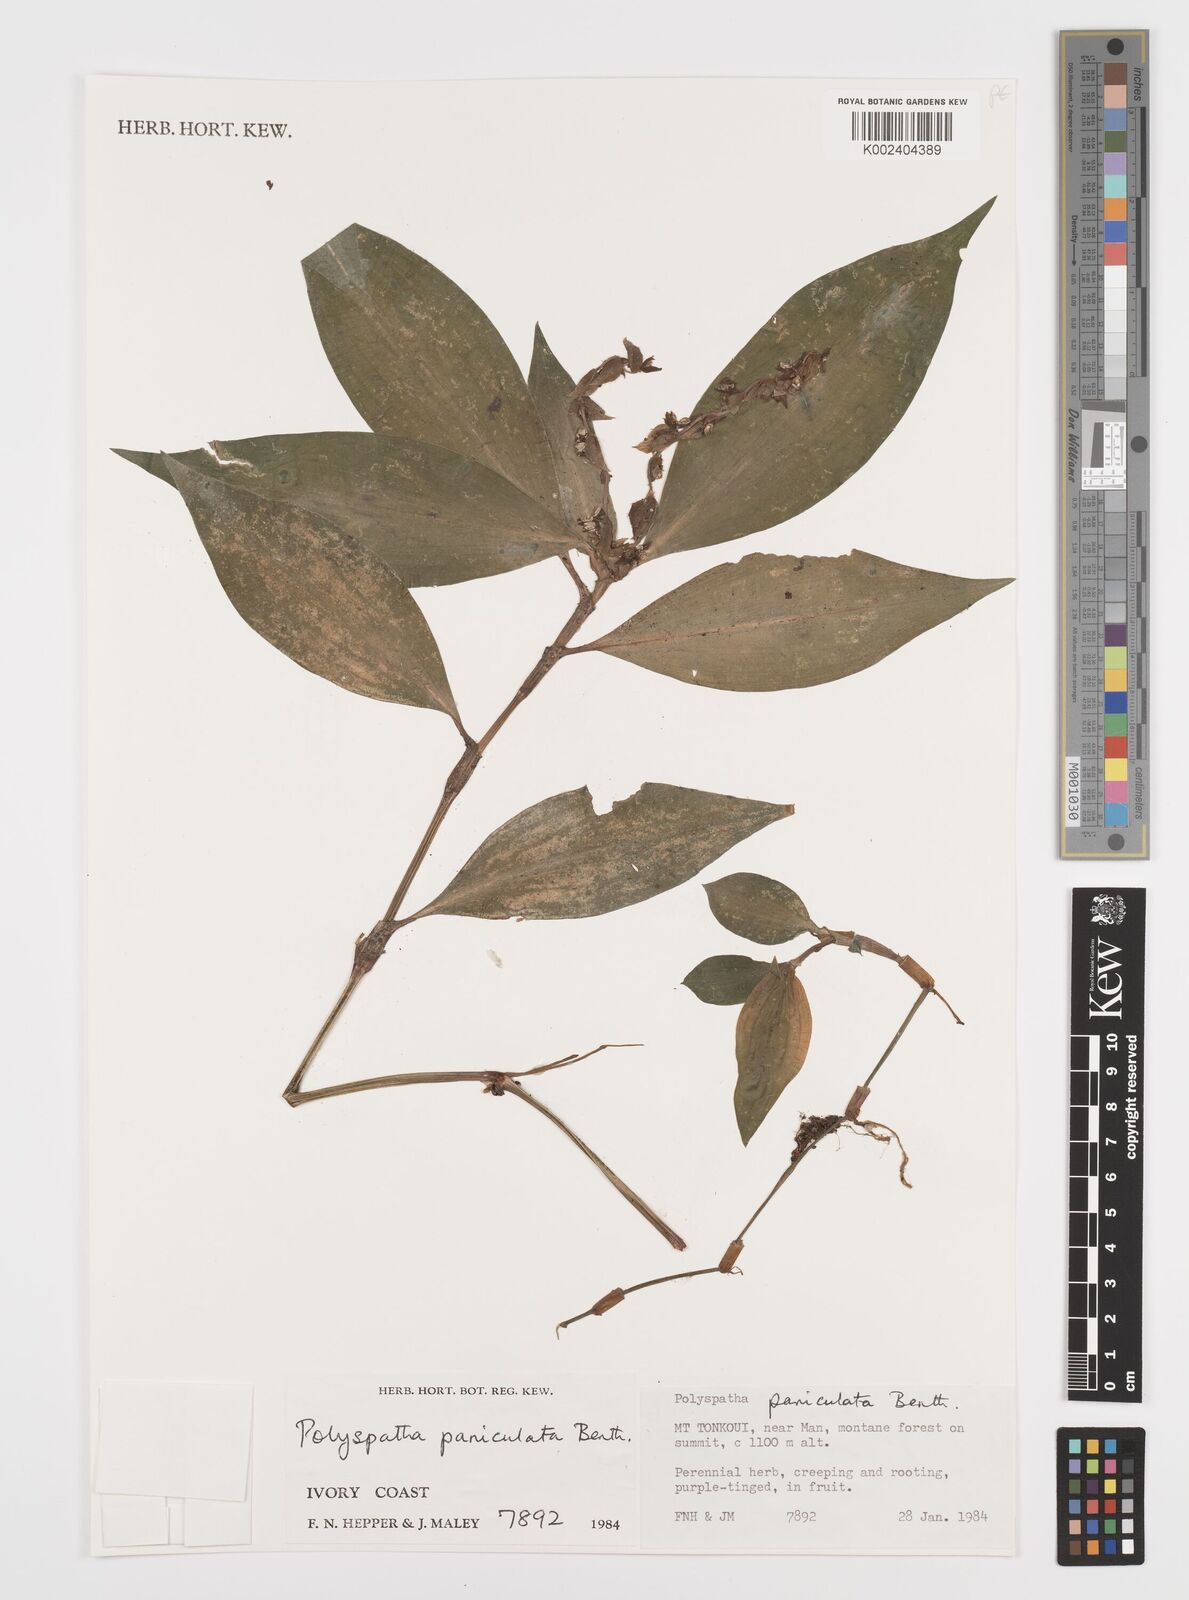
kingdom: Plantae
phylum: Tracheophyta
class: Liliopsida
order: Commelinales
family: Commelinaceae
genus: Polyspatha
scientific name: Polyspatha paniculata
